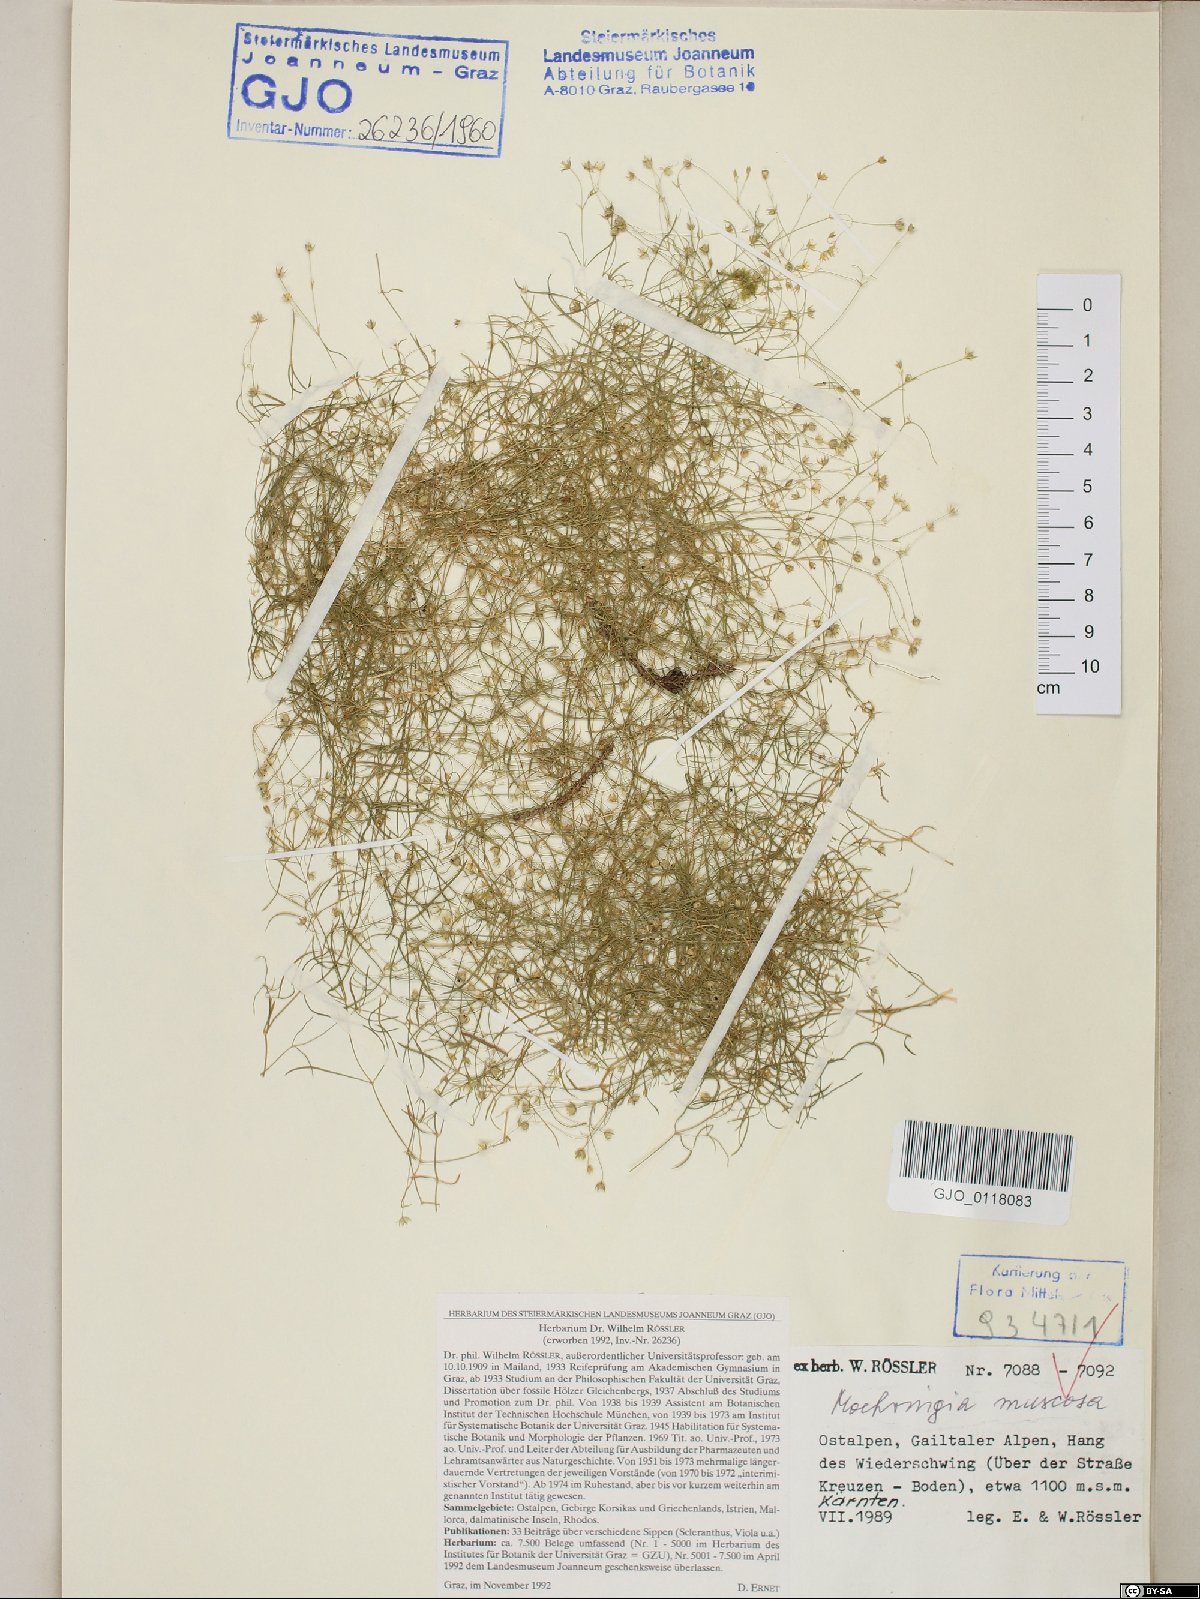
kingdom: Plantae
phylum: Tracheophyta
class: Magnoliopsida
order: Caryophyllales
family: Caryophyllaceae
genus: Moehringia
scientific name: Moehringia muscosa
